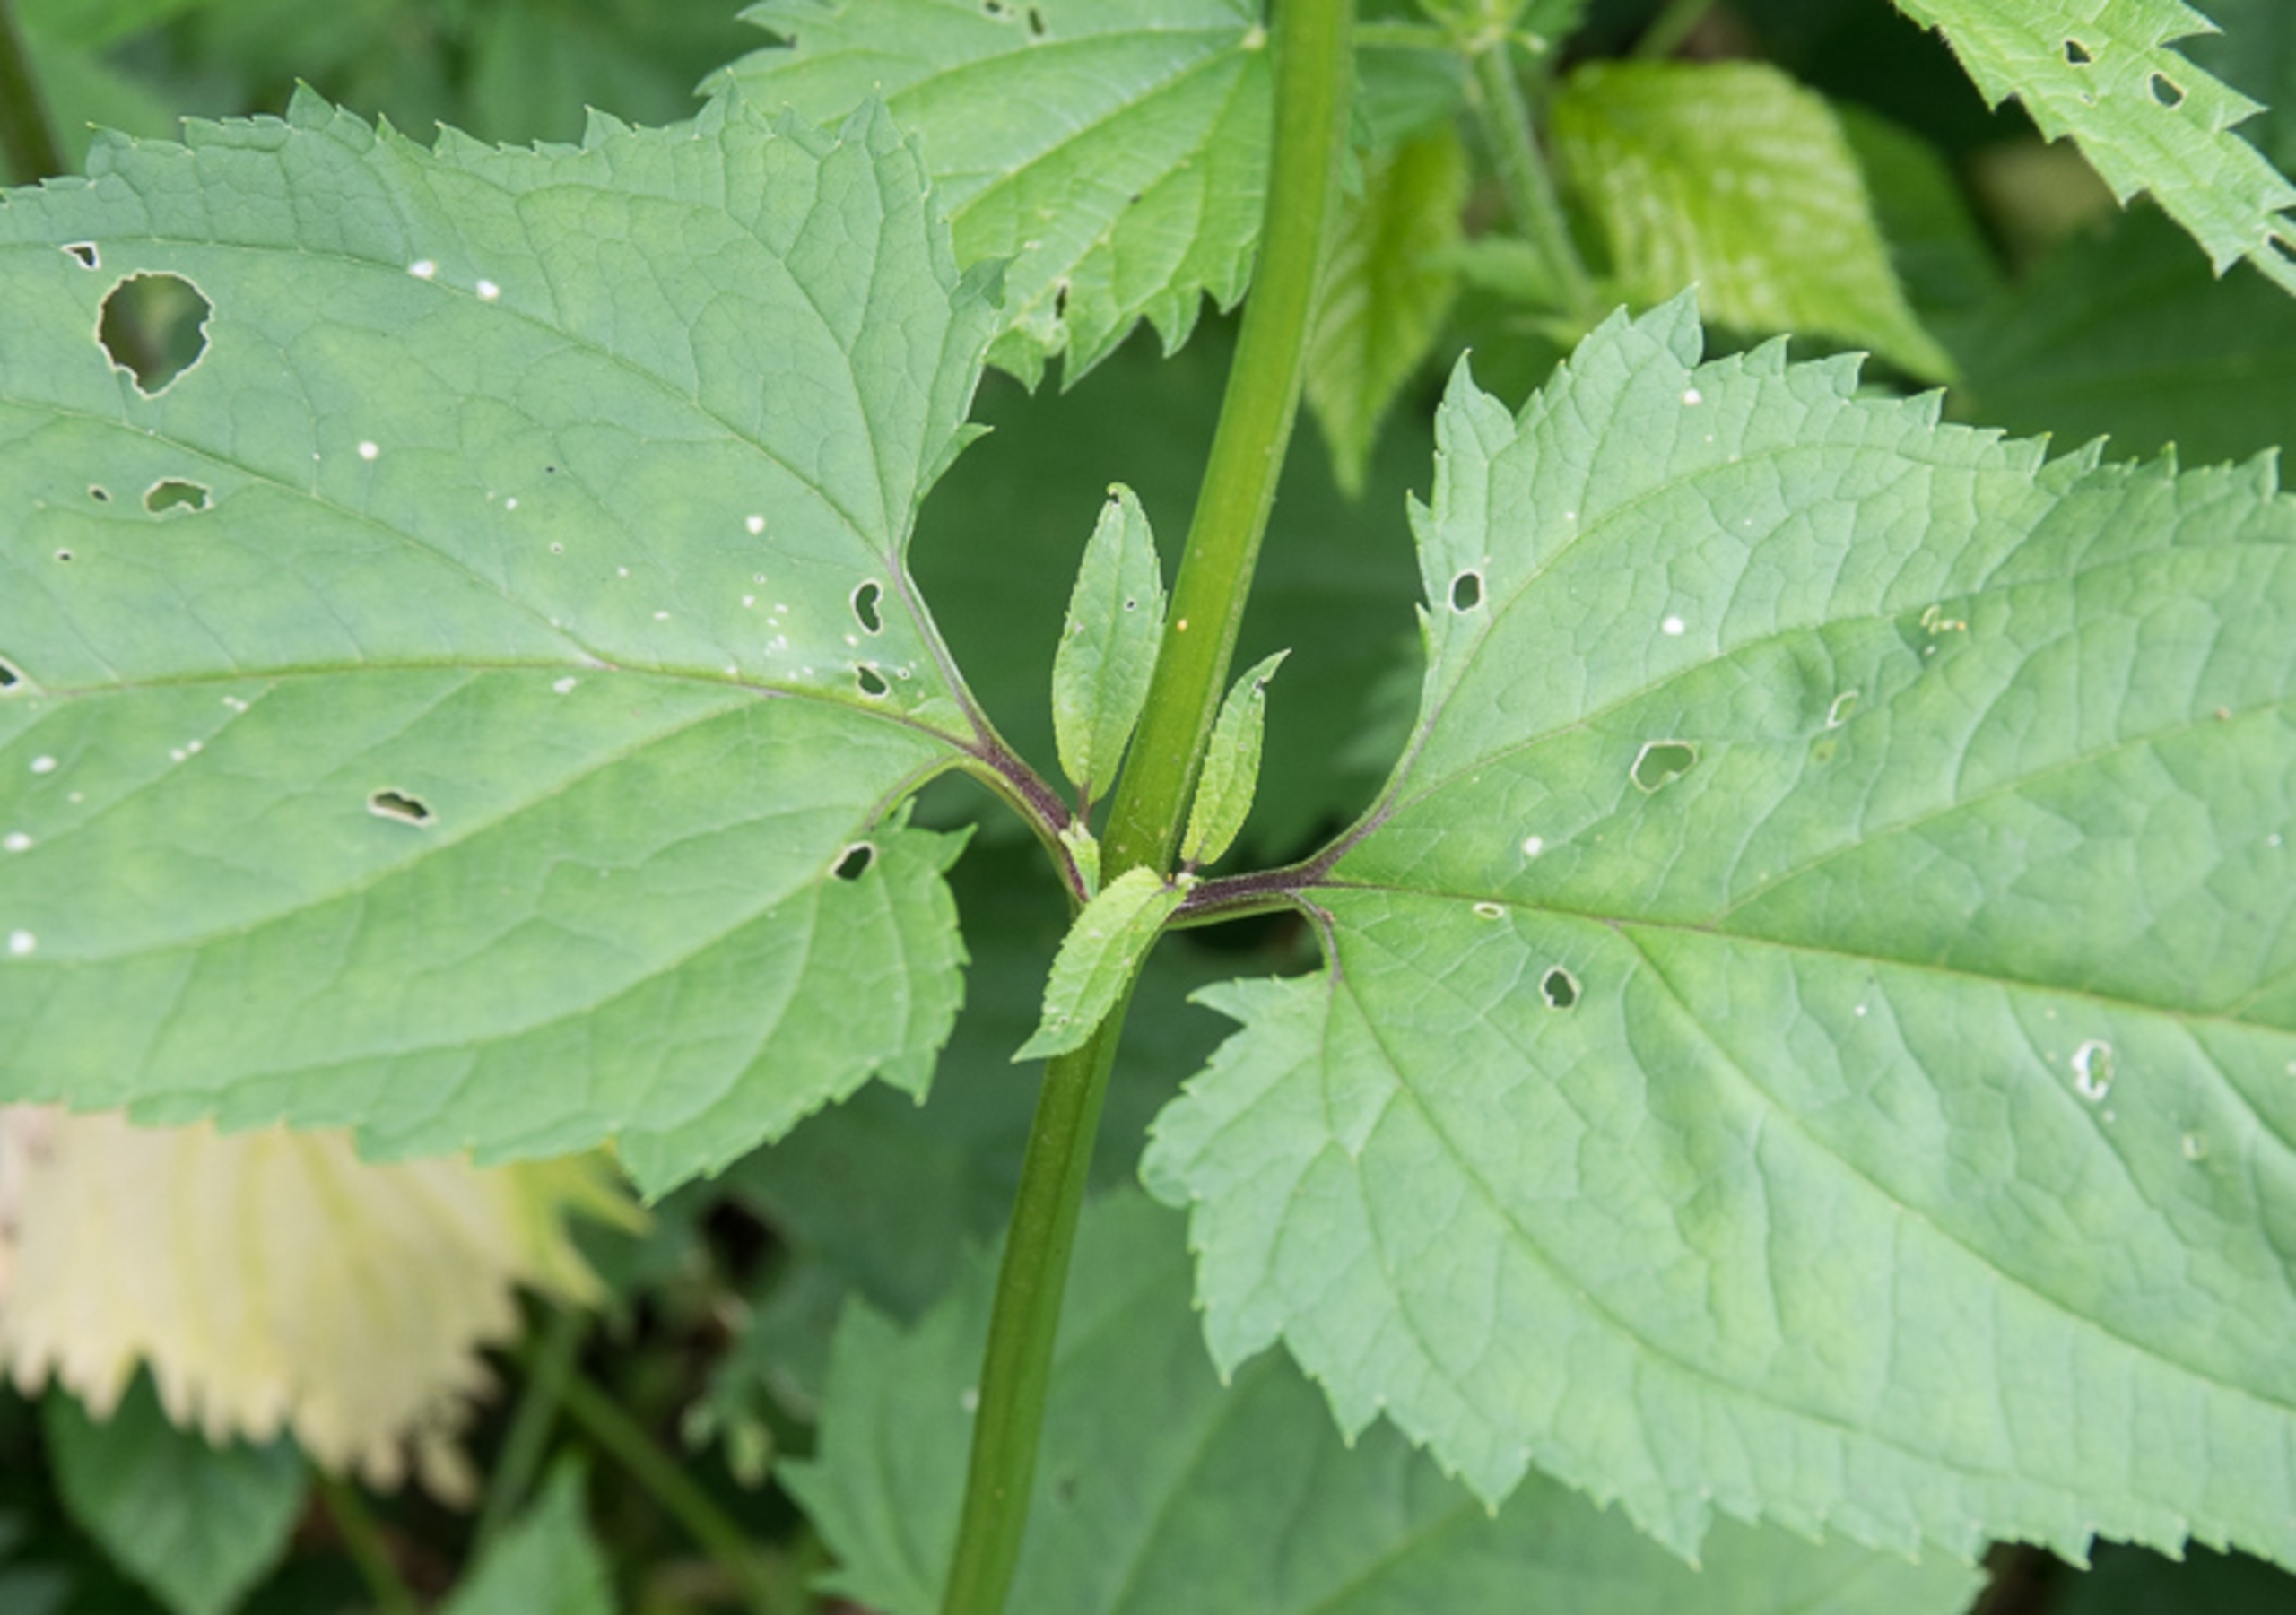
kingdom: Plantae
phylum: Tracheophyta
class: Magnoliopsida
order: Lamiales
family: Scrophulariaceae
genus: Scrophularia
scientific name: Scrophularia nodosa
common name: Knoldet brunrod
